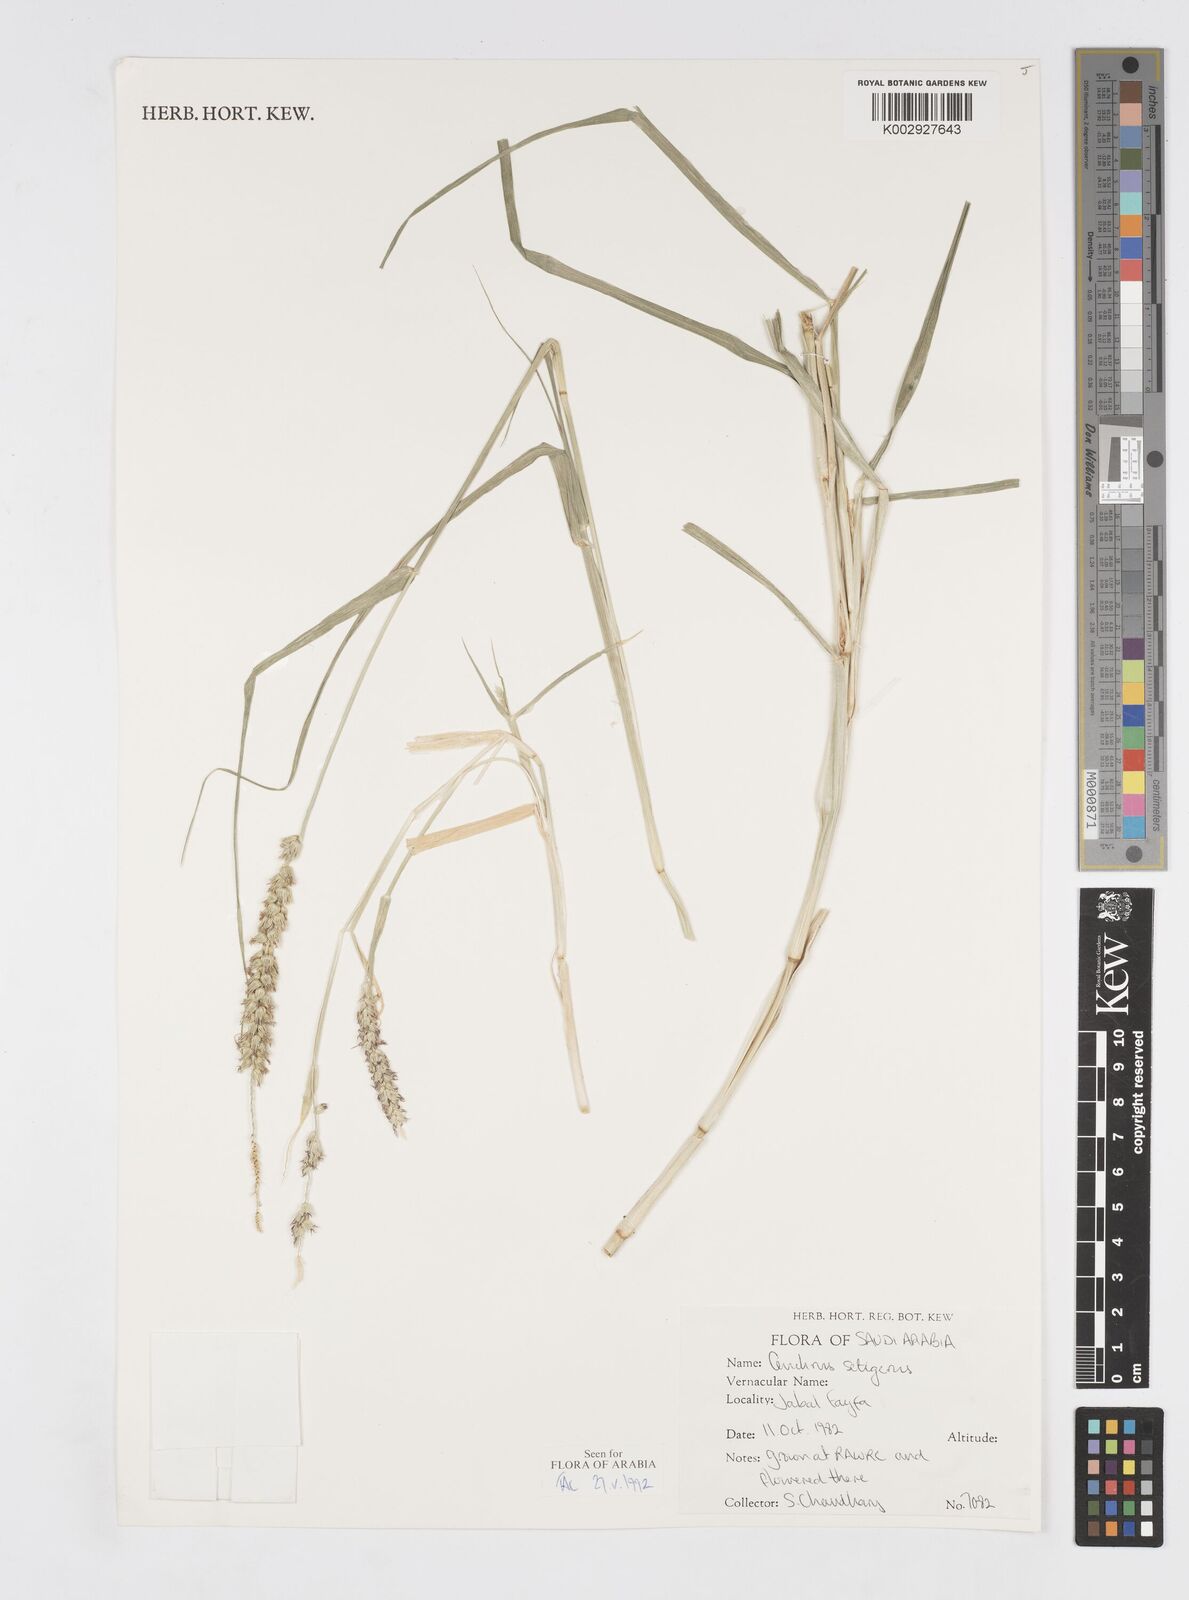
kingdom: Plantae
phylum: Tracheophyta
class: Liliopsida
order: Poales
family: Poaceae
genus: Cenchrus
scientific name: Cenchrus setigerus
